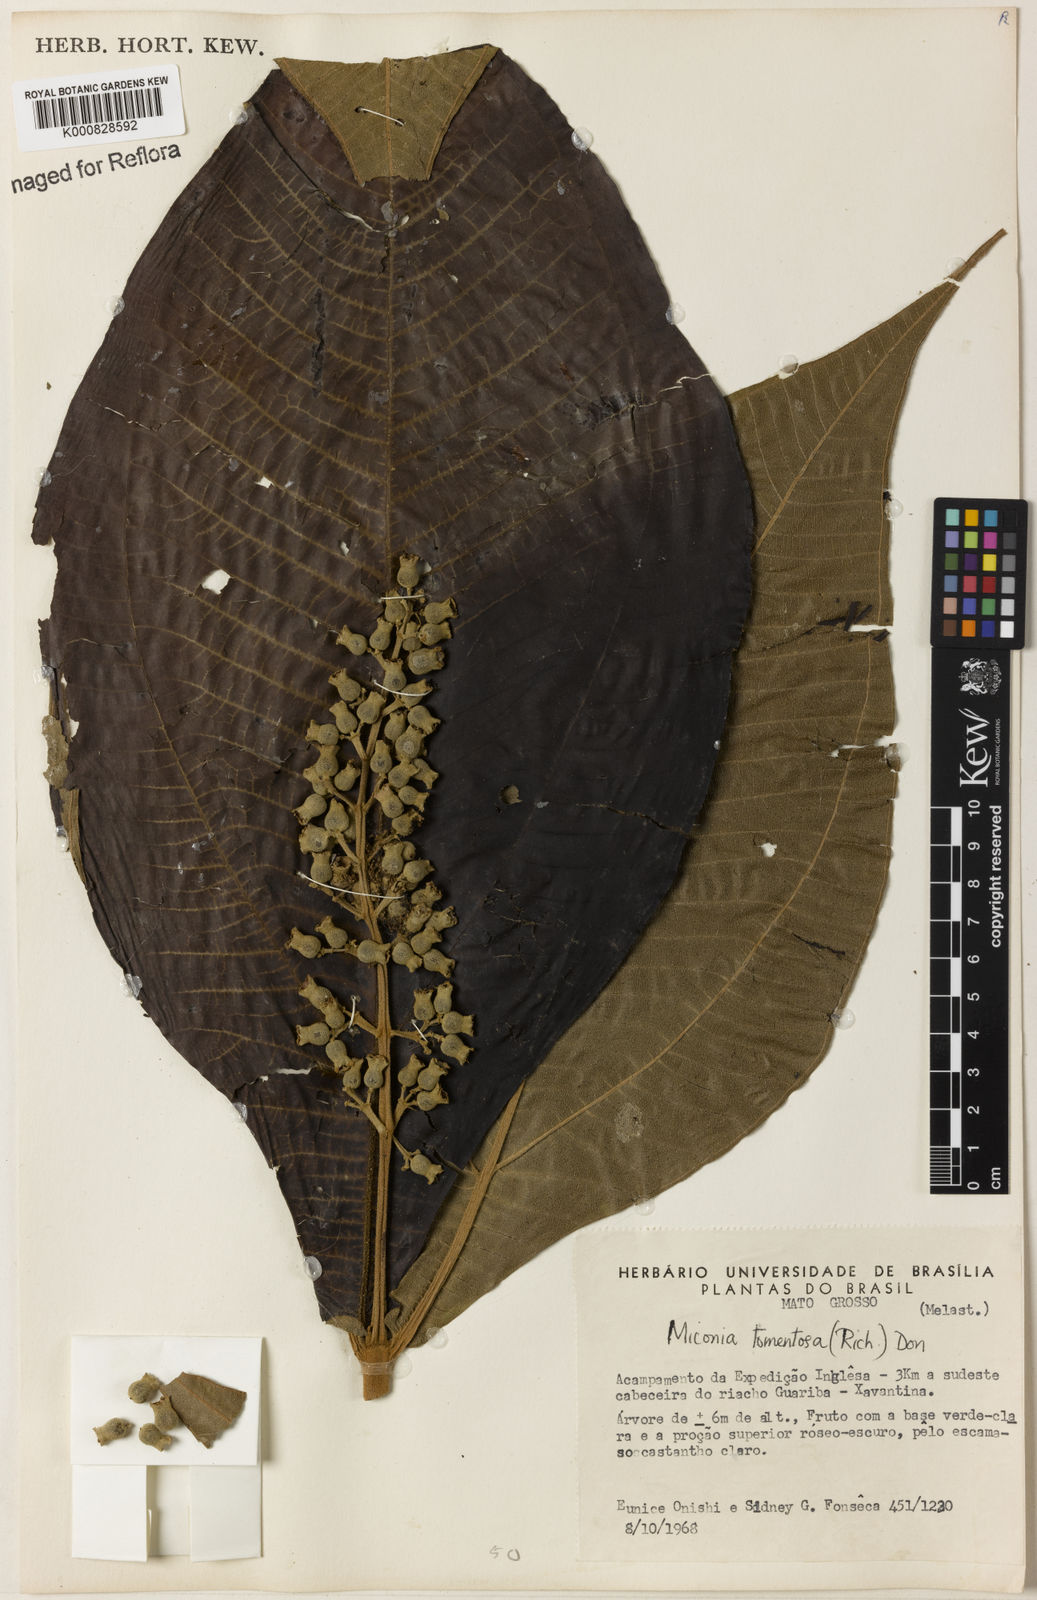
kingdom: Plantae
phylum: Tracheophyta
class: Magnoliopsida
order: Myrtales
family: Melastomataceae
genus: Miconia
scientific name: Miconia tomentosa
